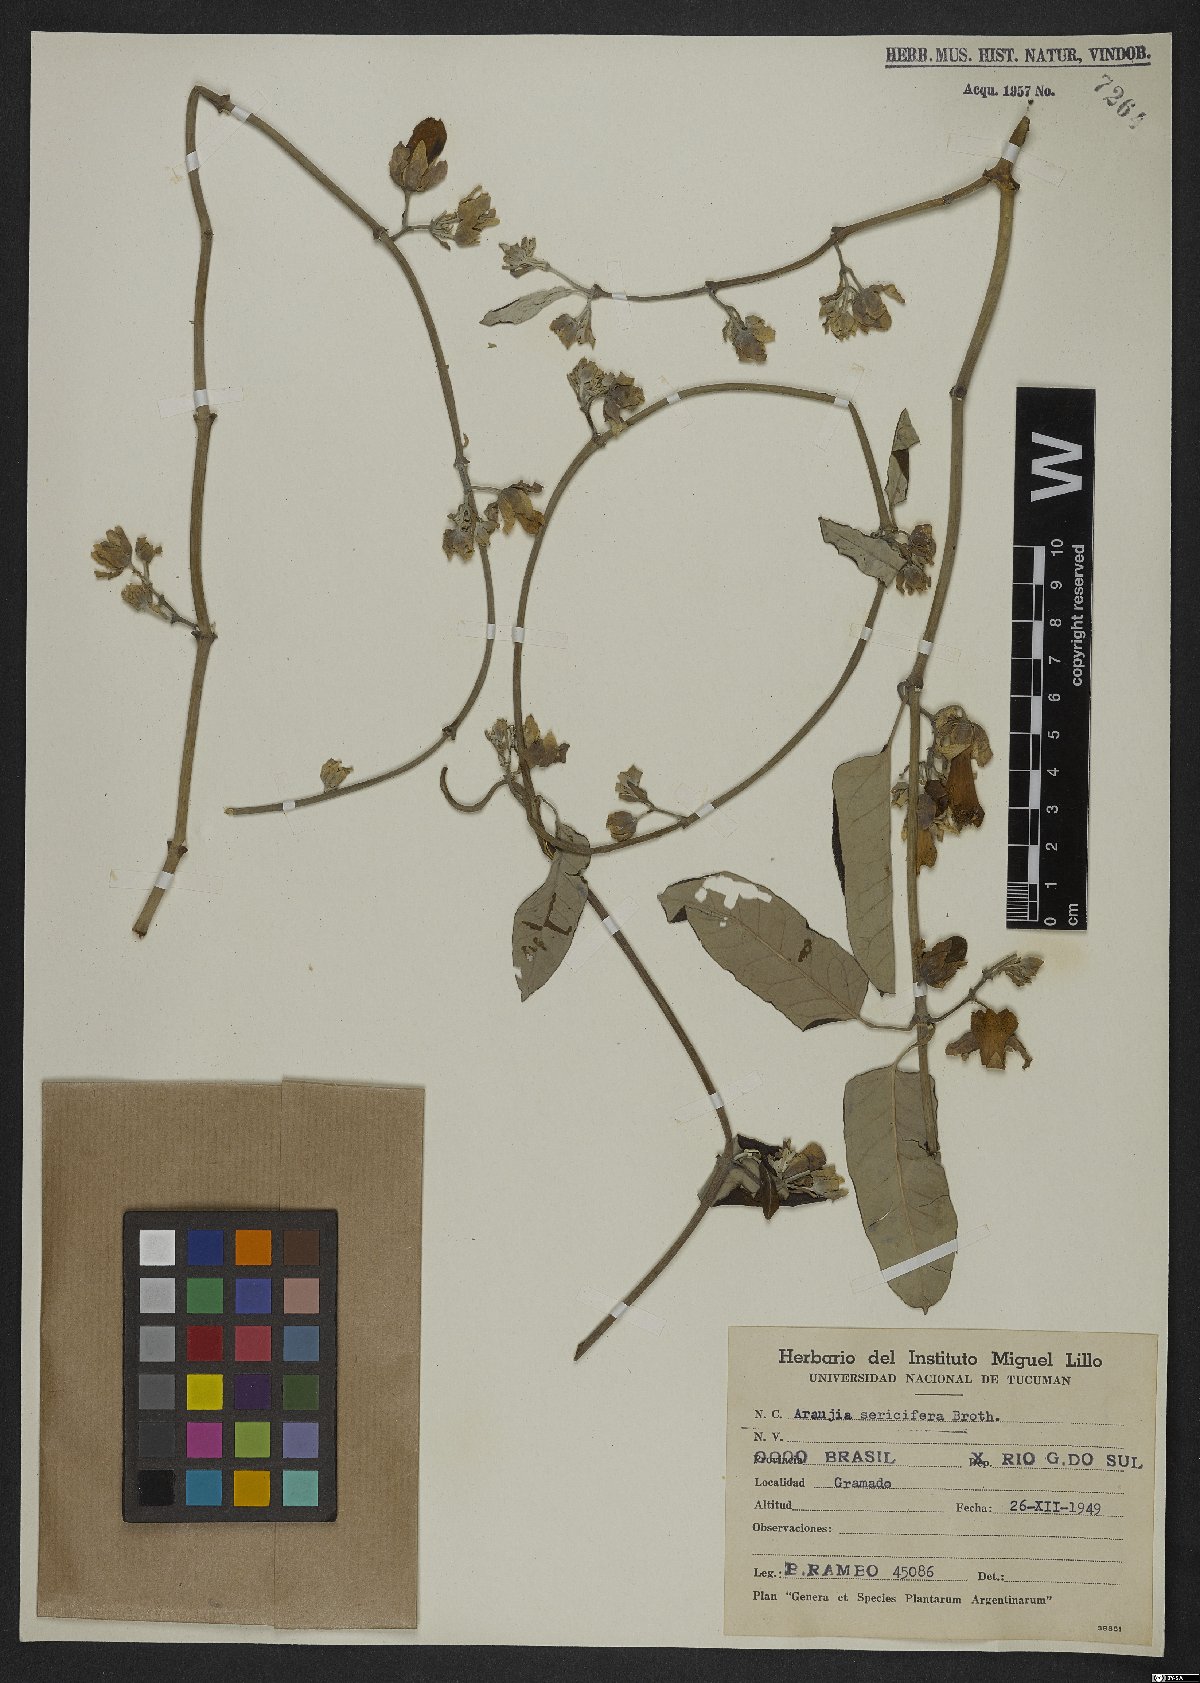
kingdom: Plantae
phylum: Tracheophyta
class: Magnoliopsida
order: Gentianales
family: Apocynaceae
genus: Araujia
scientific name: Araujia sericifera
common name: White bladderflower
